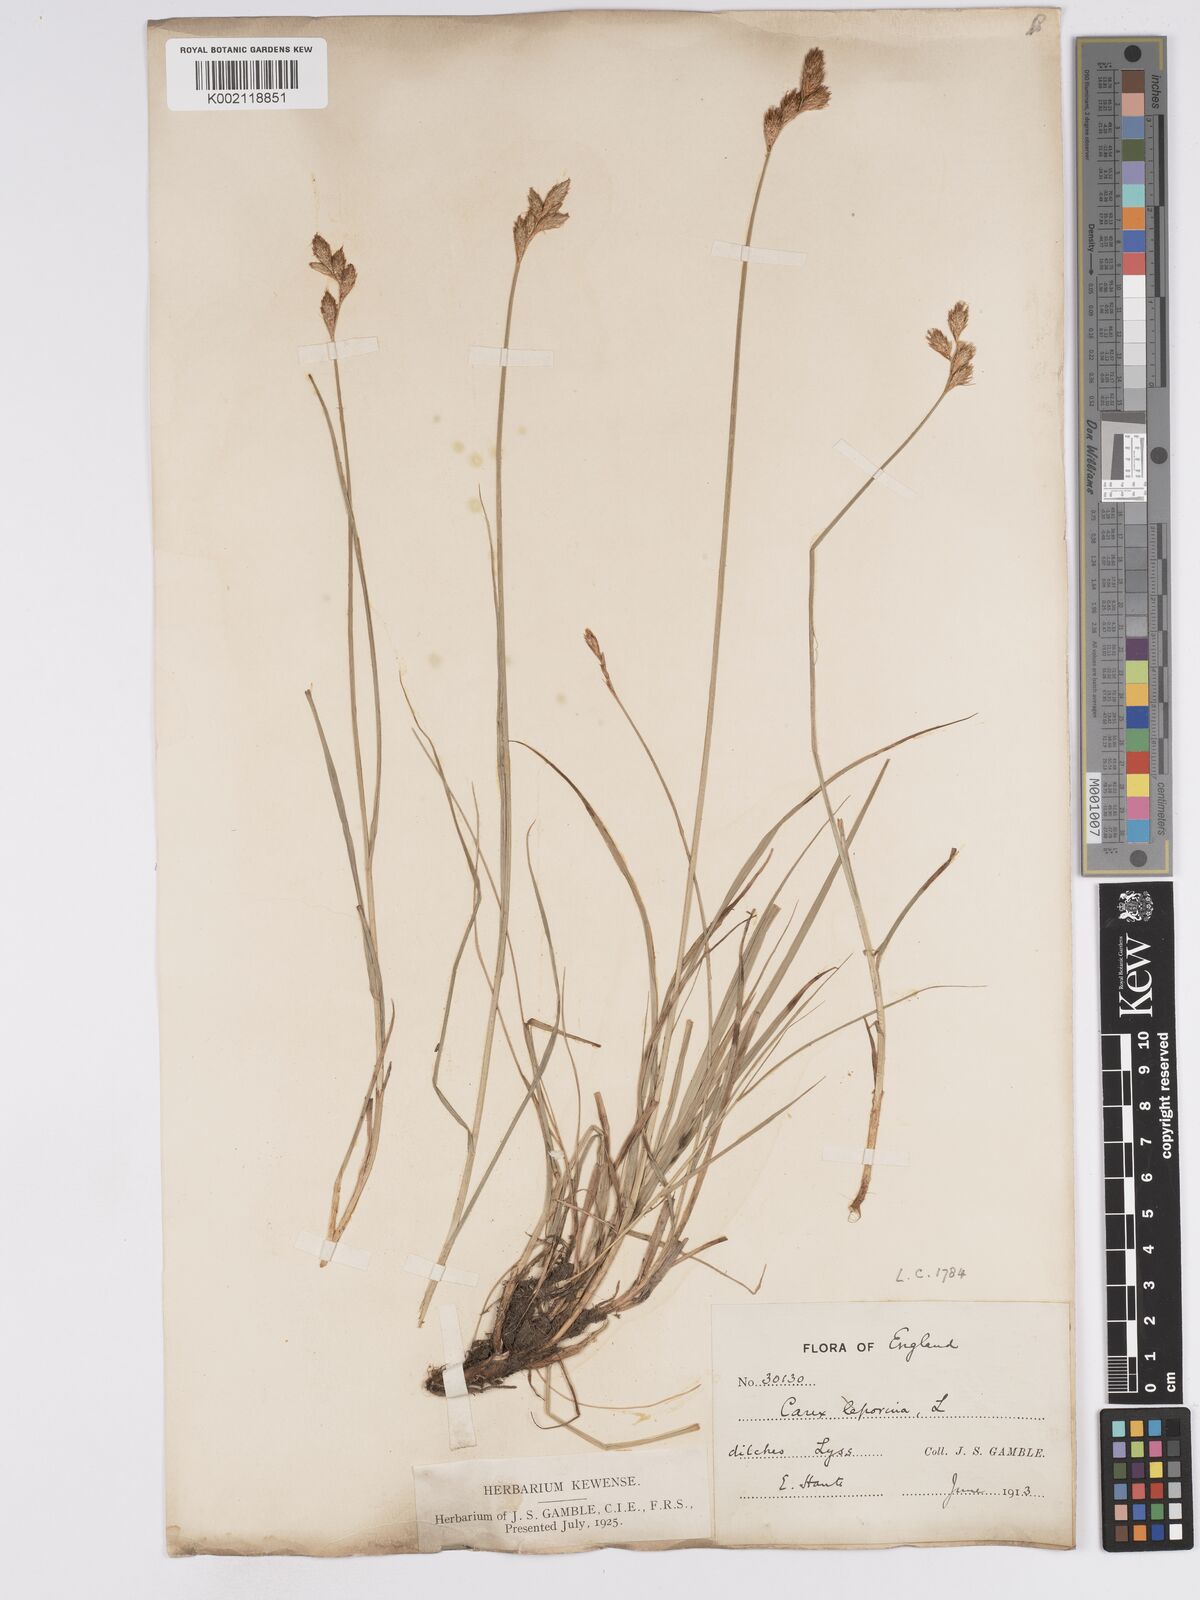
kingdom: Plantae
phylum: Tracheophyta
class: Liliopsida
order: Poales
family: Cyperaceae
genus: Carex
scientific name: Carex leporina
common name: Oval sedge
